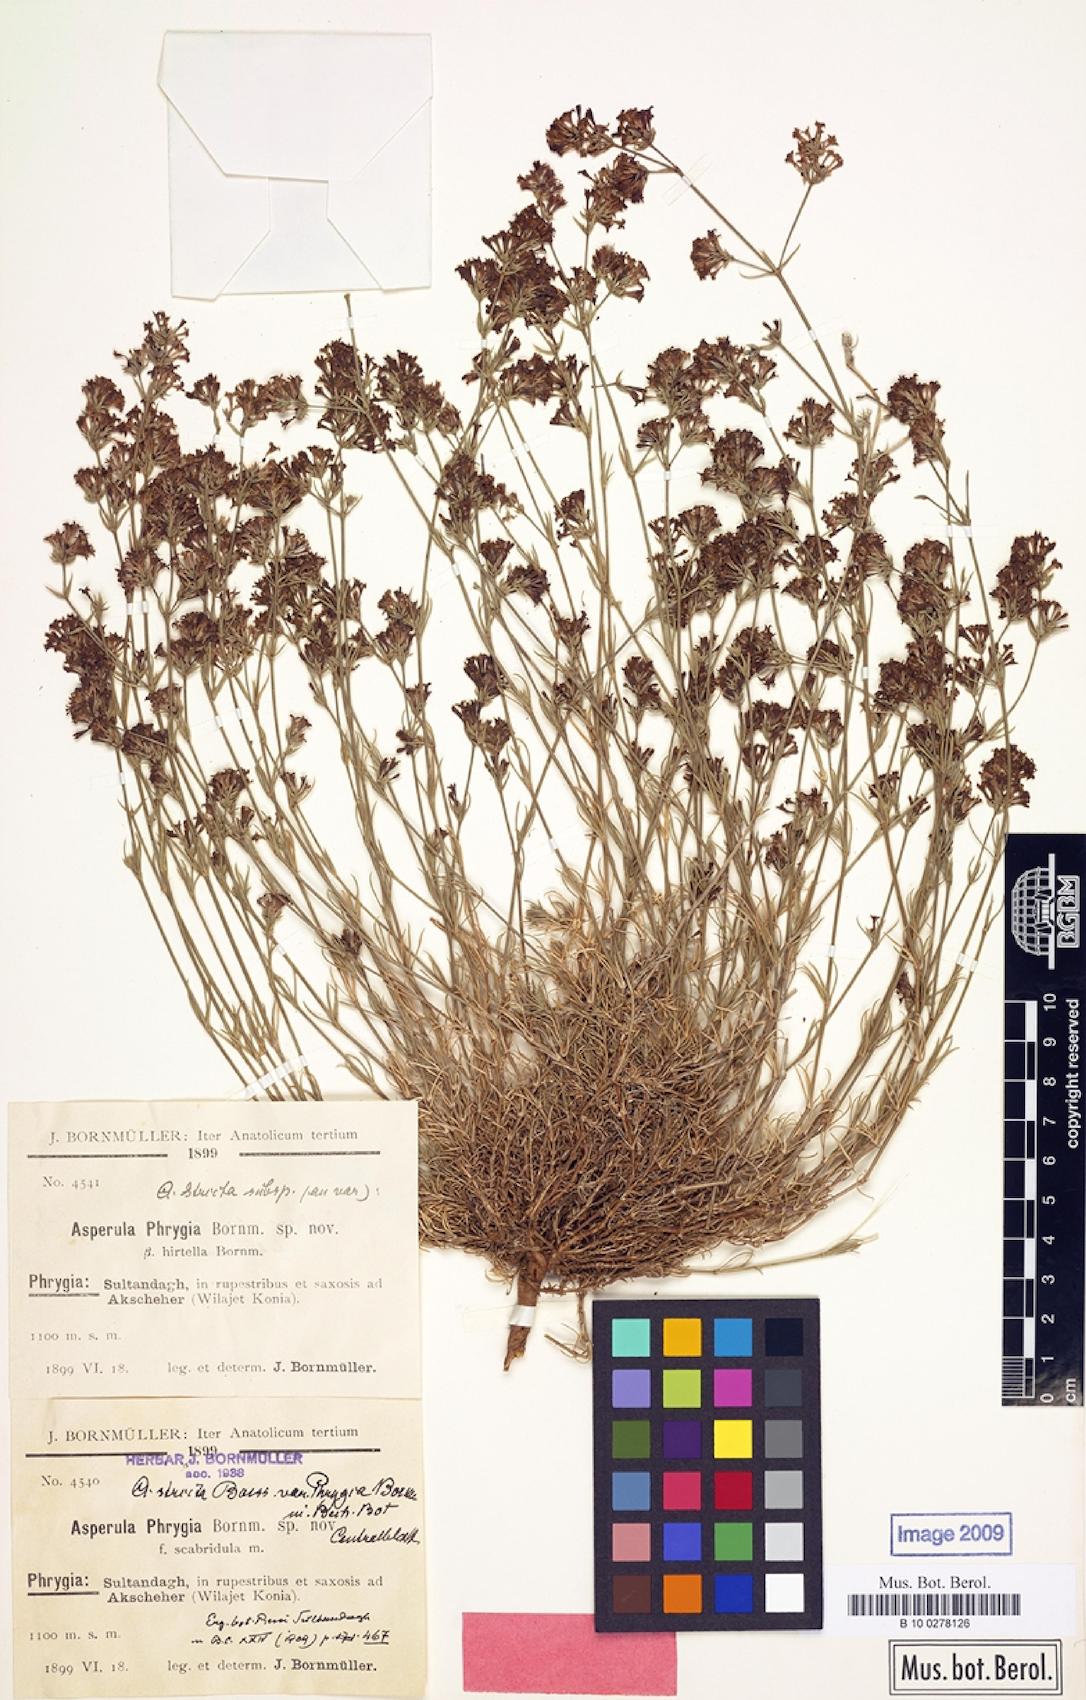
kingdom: Plantae
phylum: Tracheophyta
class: Magnoliopsida
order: Gentianales
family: Rubiaceae
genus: Cynanchica
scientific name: Cynanchica lilaciflora
